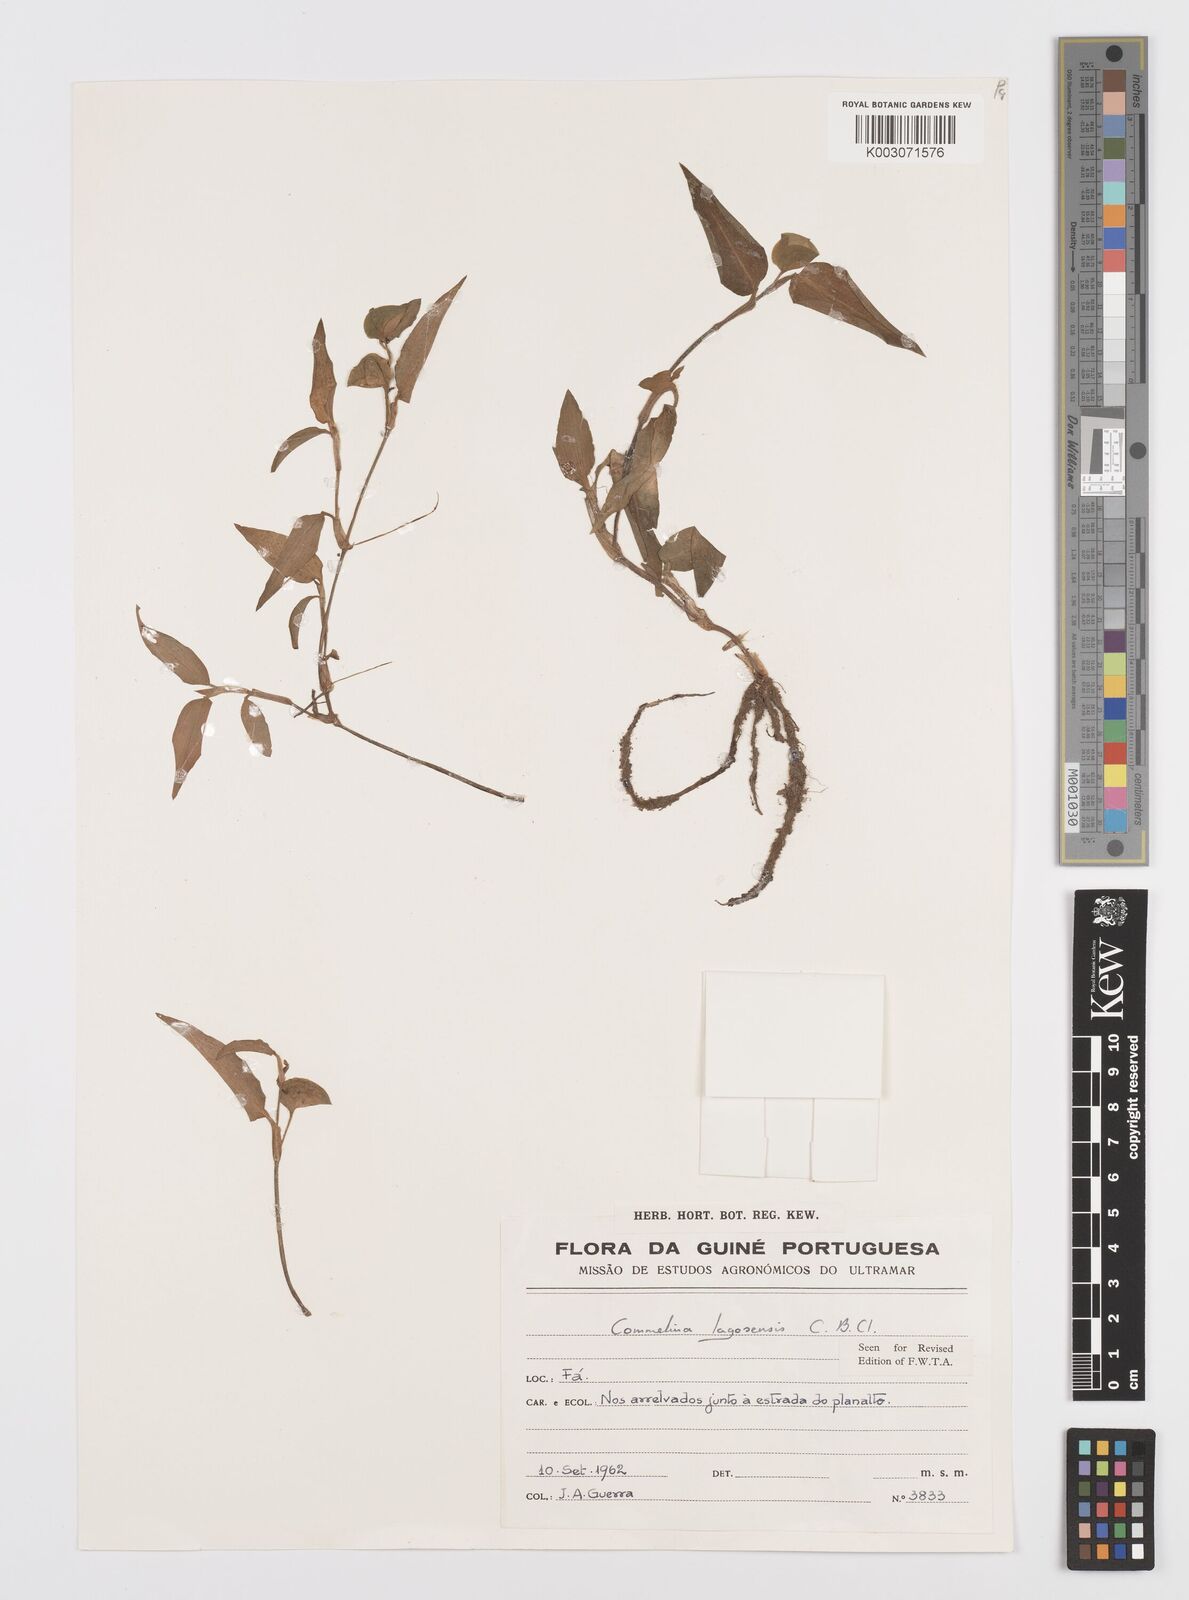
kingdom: Plantae
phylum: Tracheophyta
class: Liliopsida
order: Commelinales
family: Commelinaceae
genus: Commelina
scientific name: Commelina bracteosa
